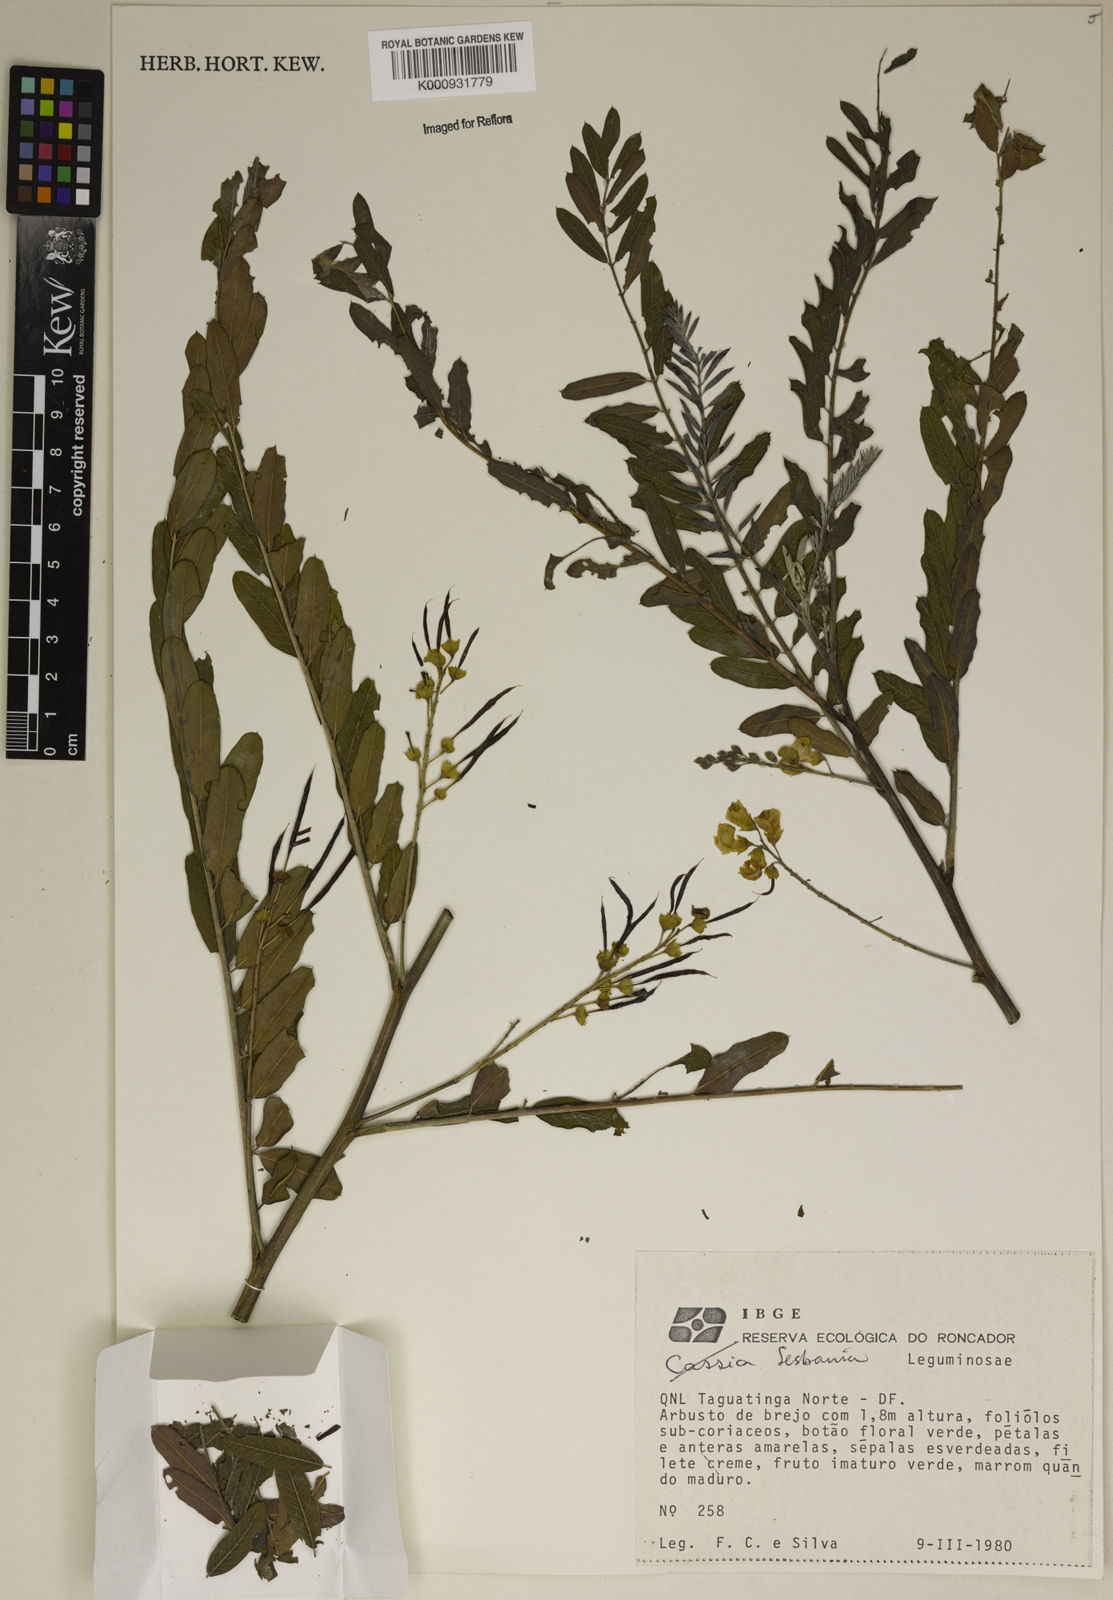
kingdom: Plantae
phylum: Tracheophyta
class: Magnoliopsida
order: Fabales
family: Fabaceae
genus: Sesbania
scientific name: Sesbania
